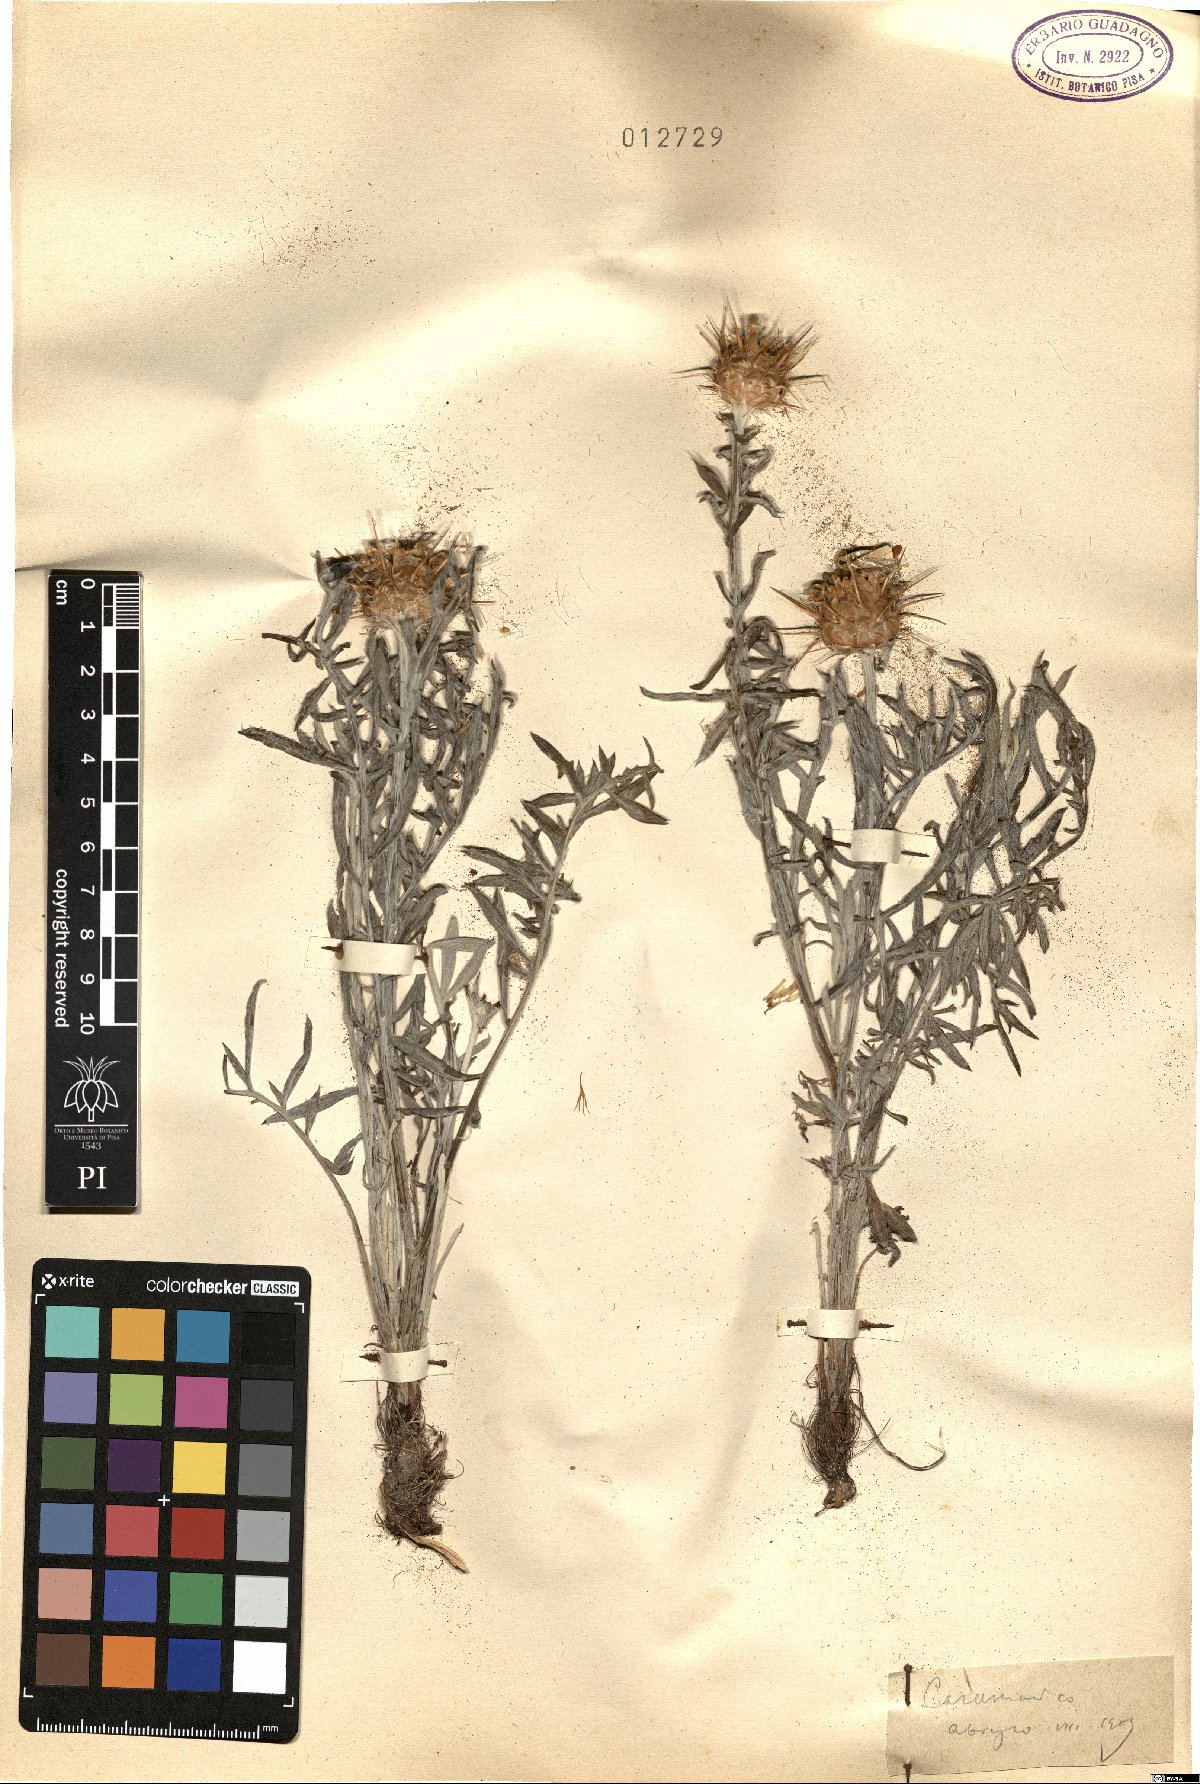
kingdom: Plantae
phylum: Tracheophyta
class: Magnoliopsida
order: Asterales
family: Asteraceae
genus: Centaurea
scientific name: Centaurea
